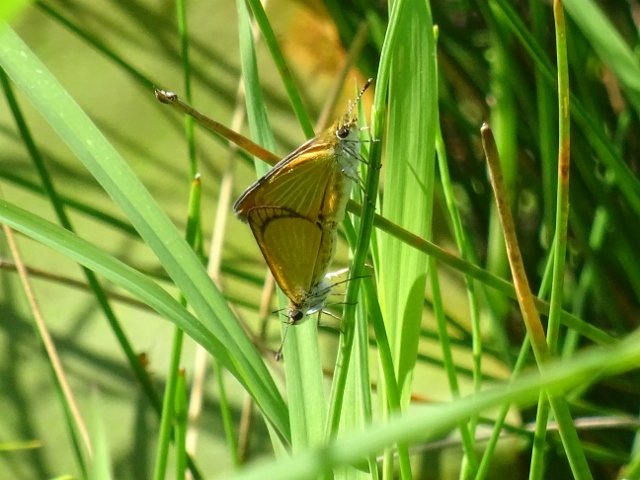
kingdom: Animalia
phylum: Arthropoda
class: Insecta
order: Lepidoptera
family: Hesperiidae
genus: Ancyloxypha
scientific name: Ancyloxypha numitor
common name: Least Skipper
